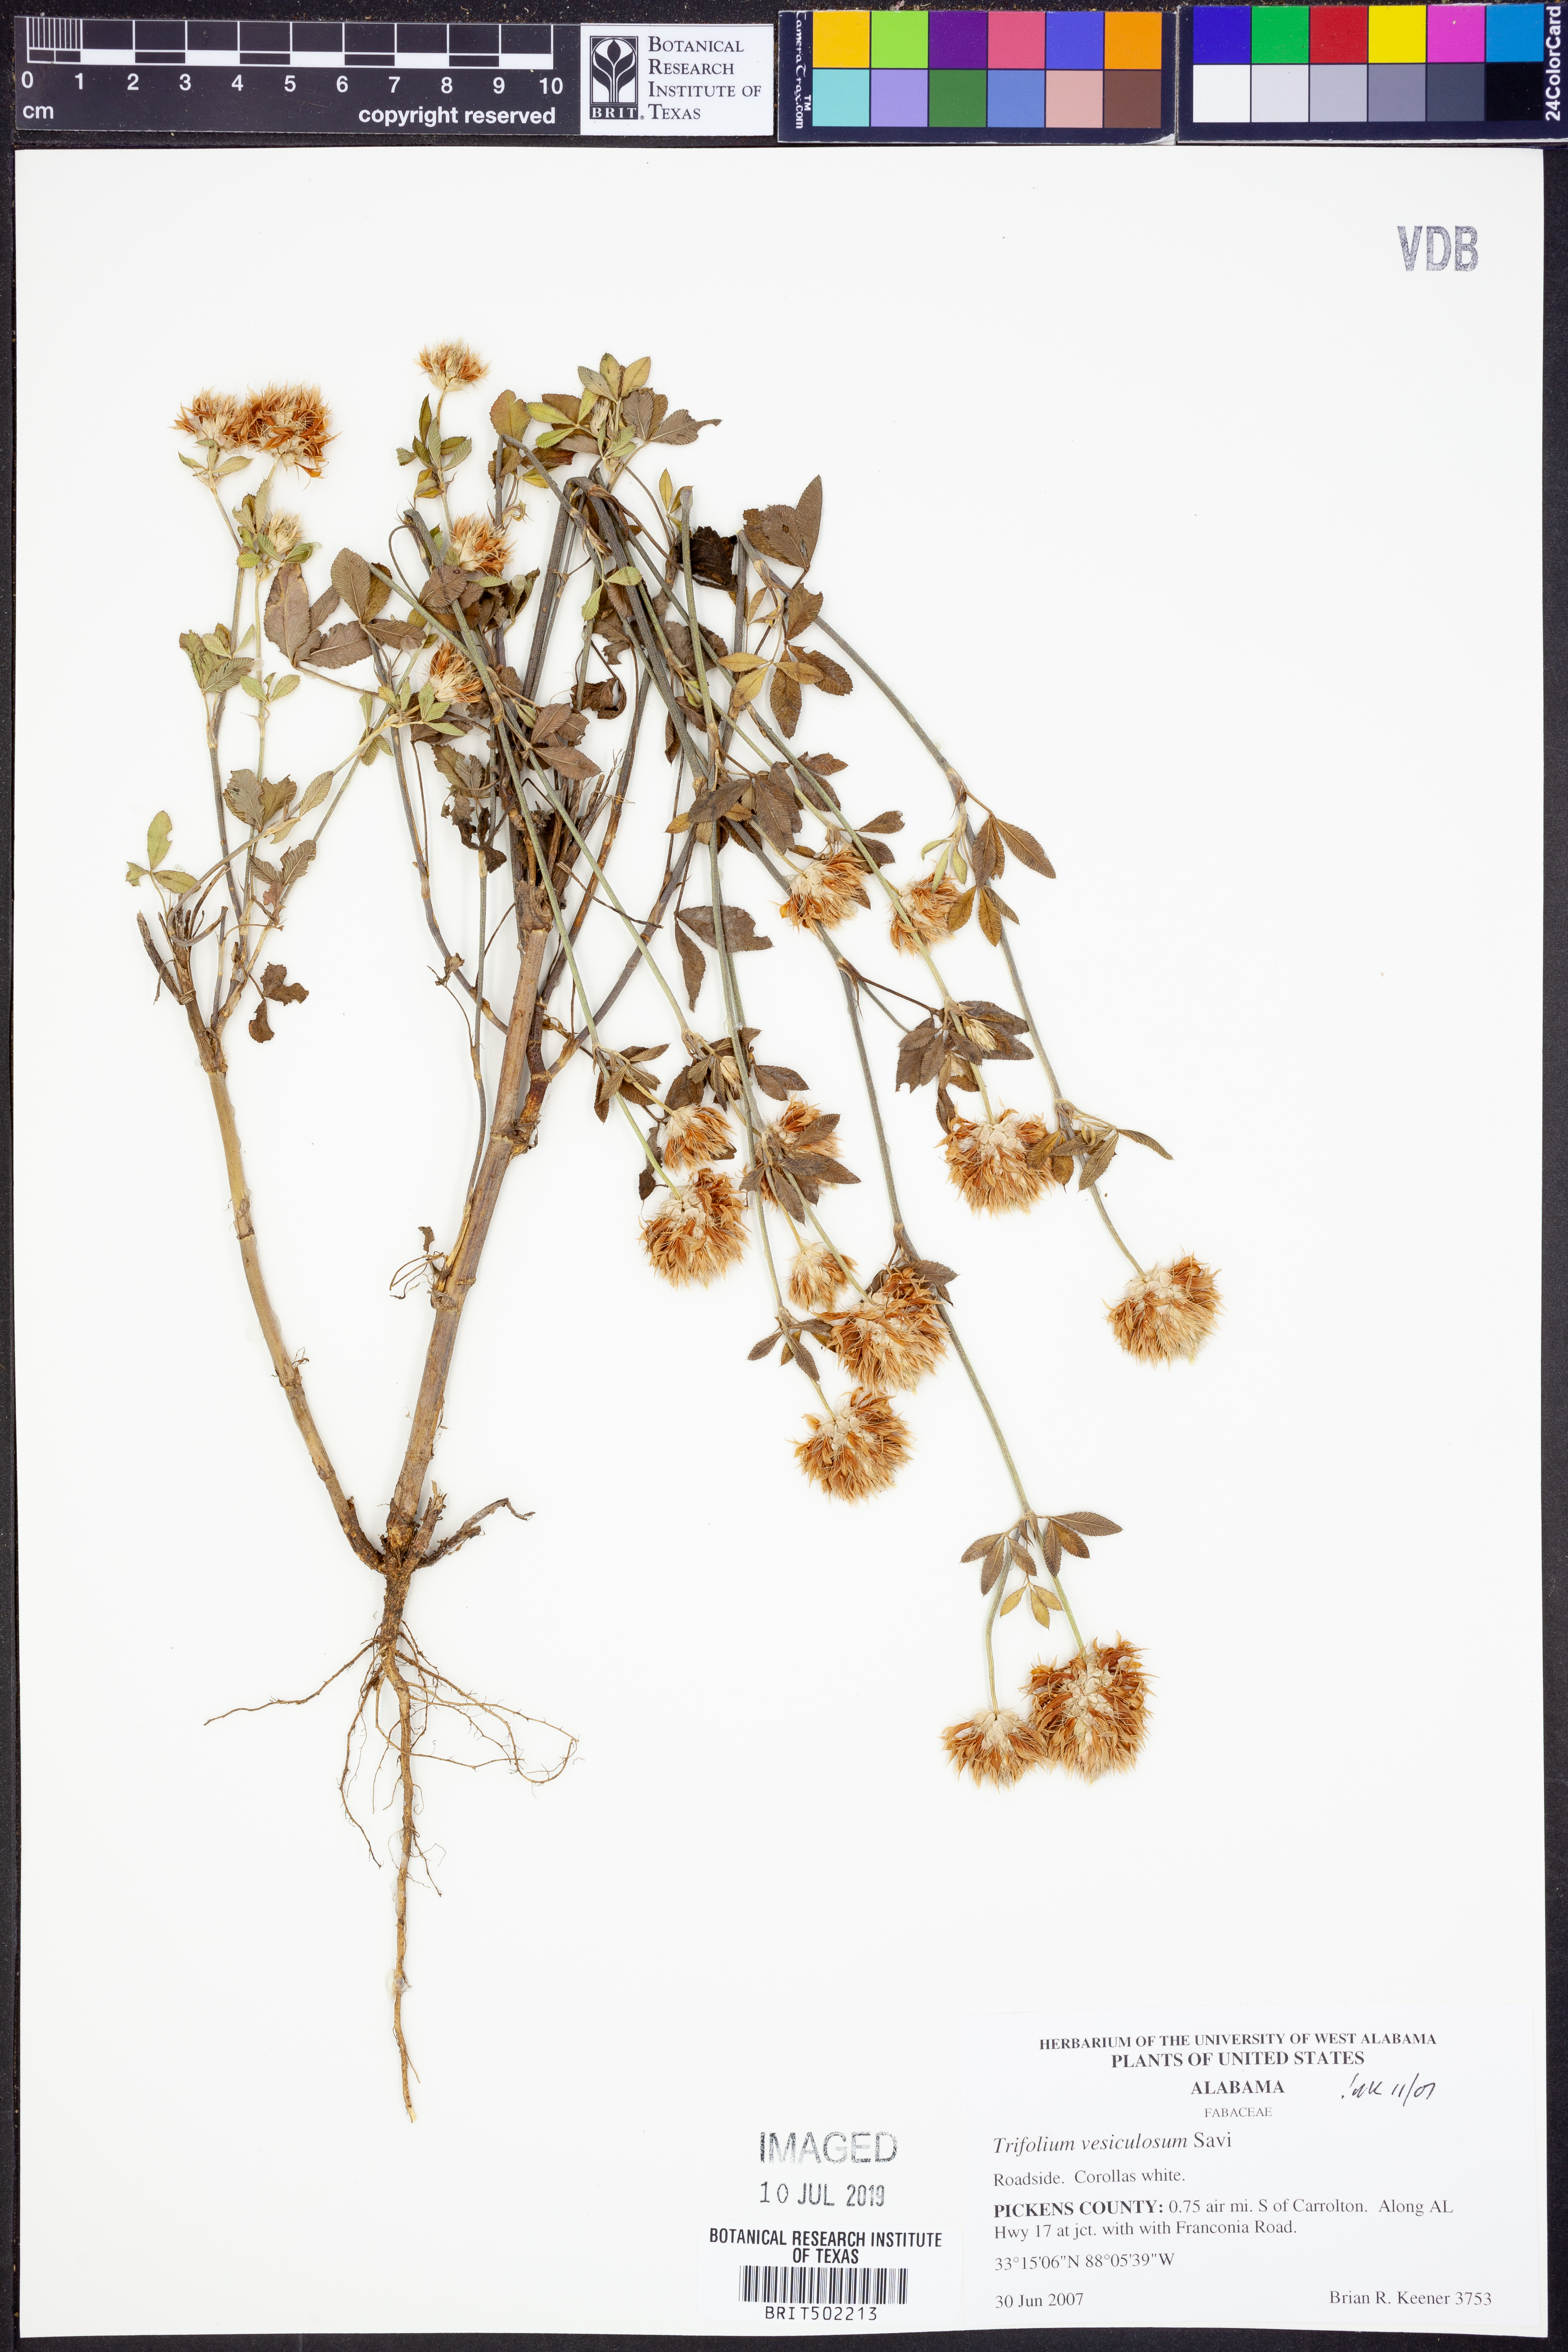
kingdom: Plantae
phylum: Tracheophyta
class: Magnoliopsida
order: Fabales
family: Fabaceae
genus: Trifolium
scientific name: Trifolium vesiculosum
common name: Arrowleaf clover
